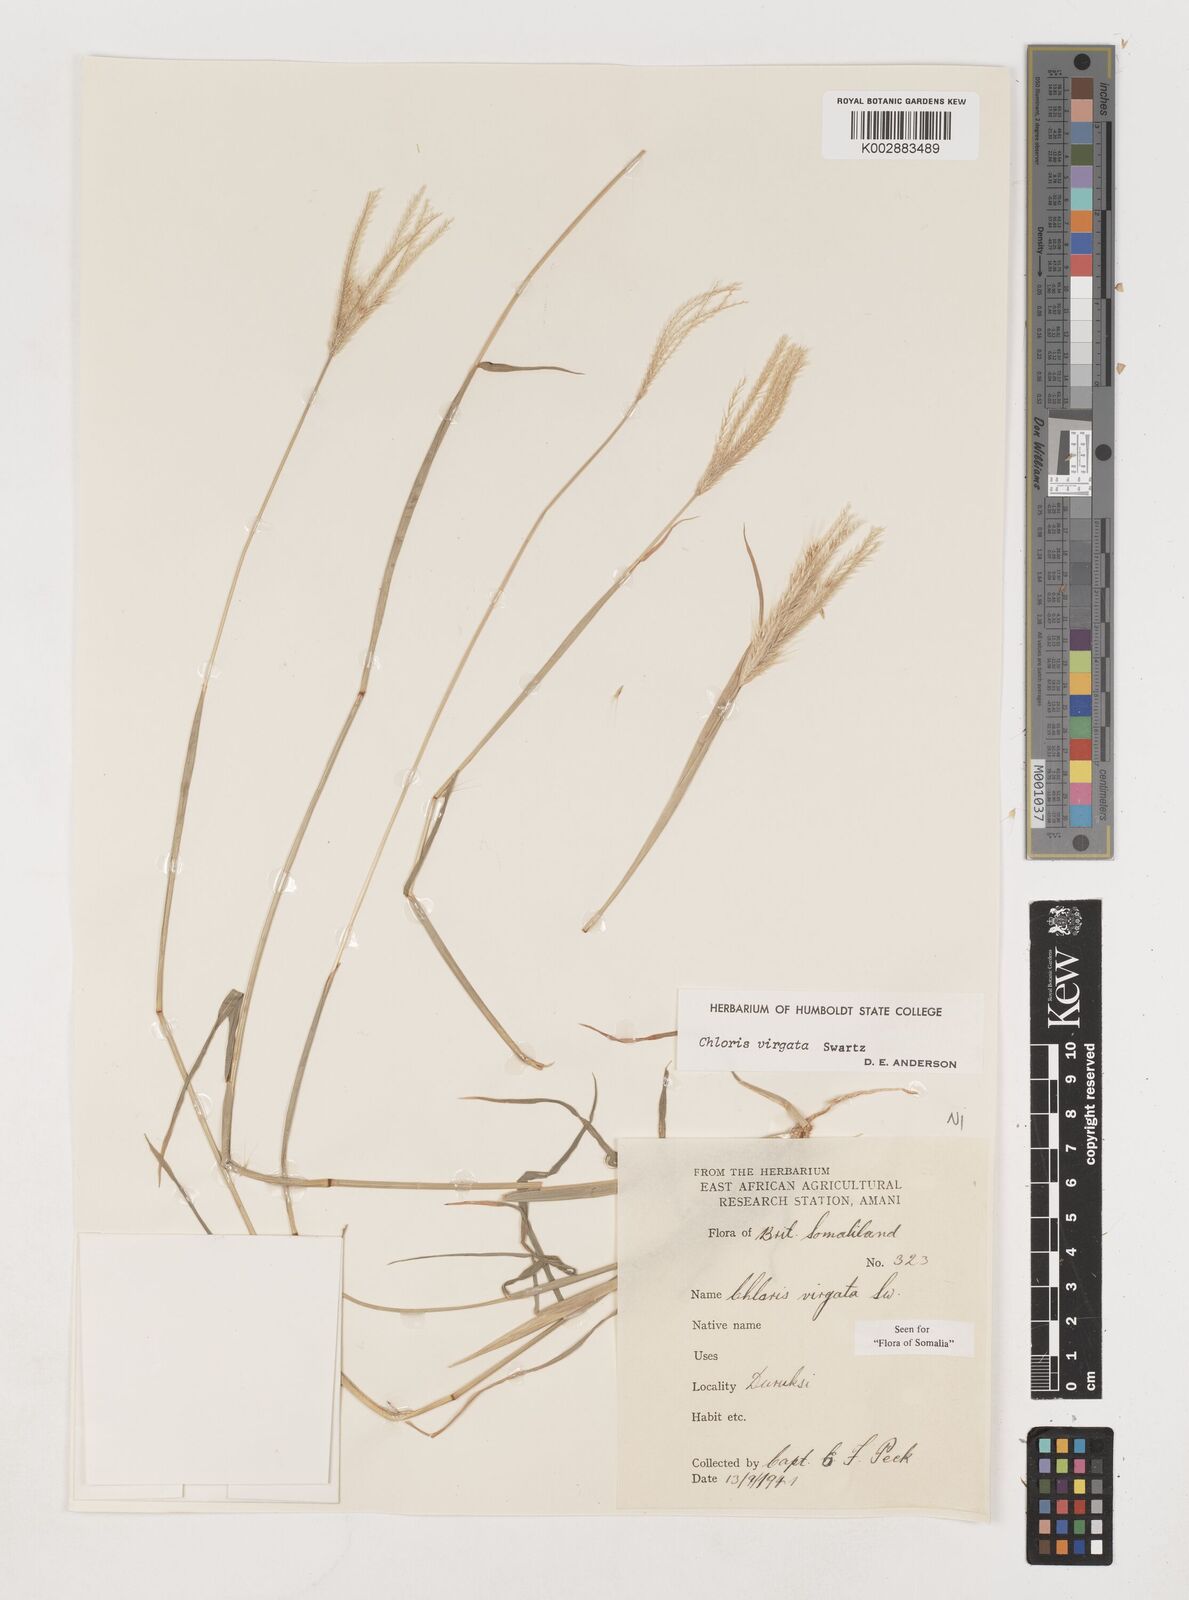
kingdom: Plantae
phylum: Tracheophyta
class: Liliopsida
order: Poales
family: Poaceae
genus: Chloris
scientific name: Chloris virgata
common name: Feathery rhodes-grass
